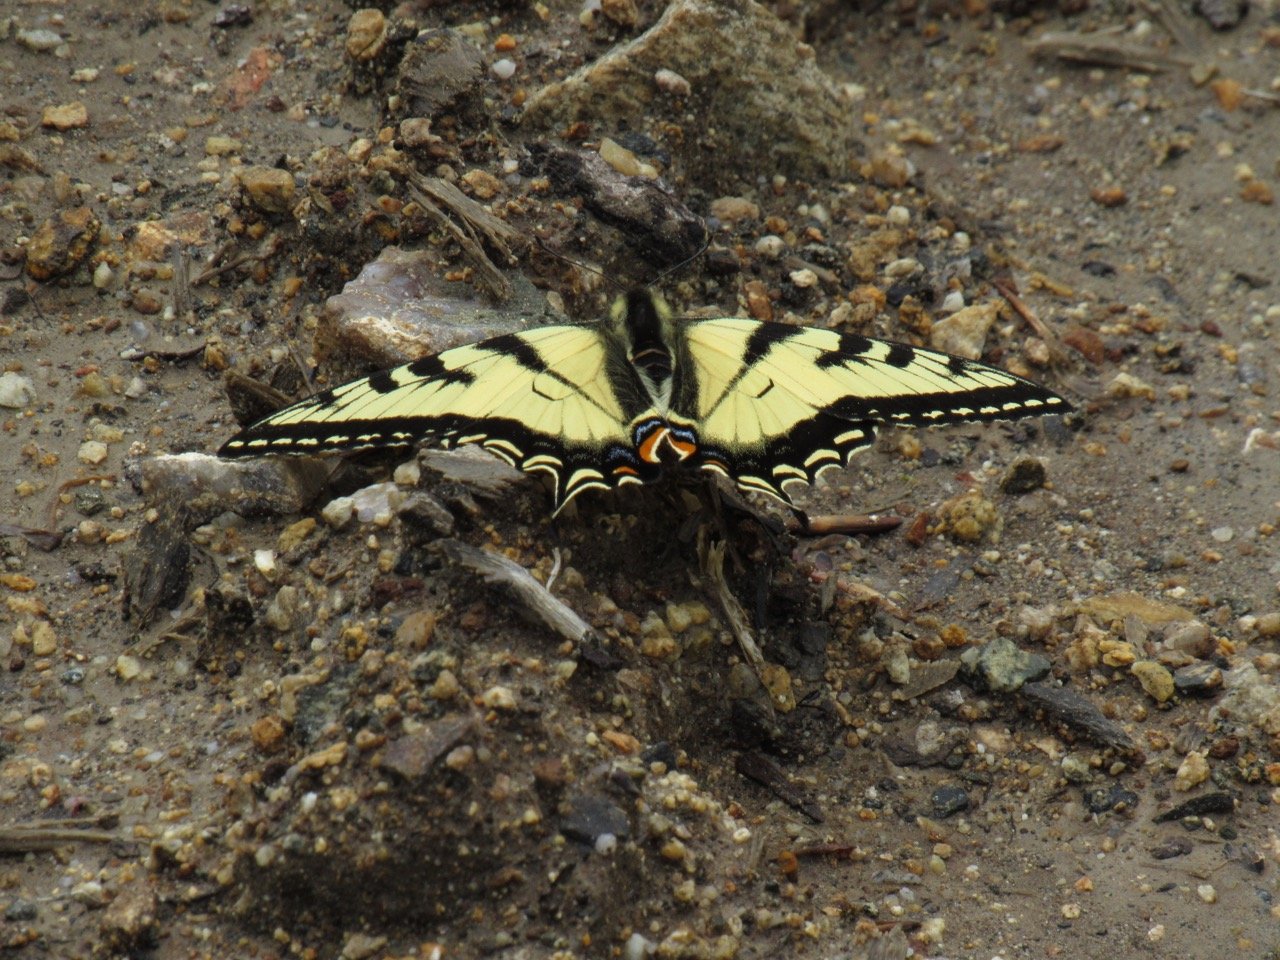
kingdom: Animalia
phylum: Arthropoda
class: Insecta
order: Lepidoptera
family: Papilionidae
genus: Pterourus
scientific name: Pterourus canadensis
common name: Canadian Tiger Swallowtail
